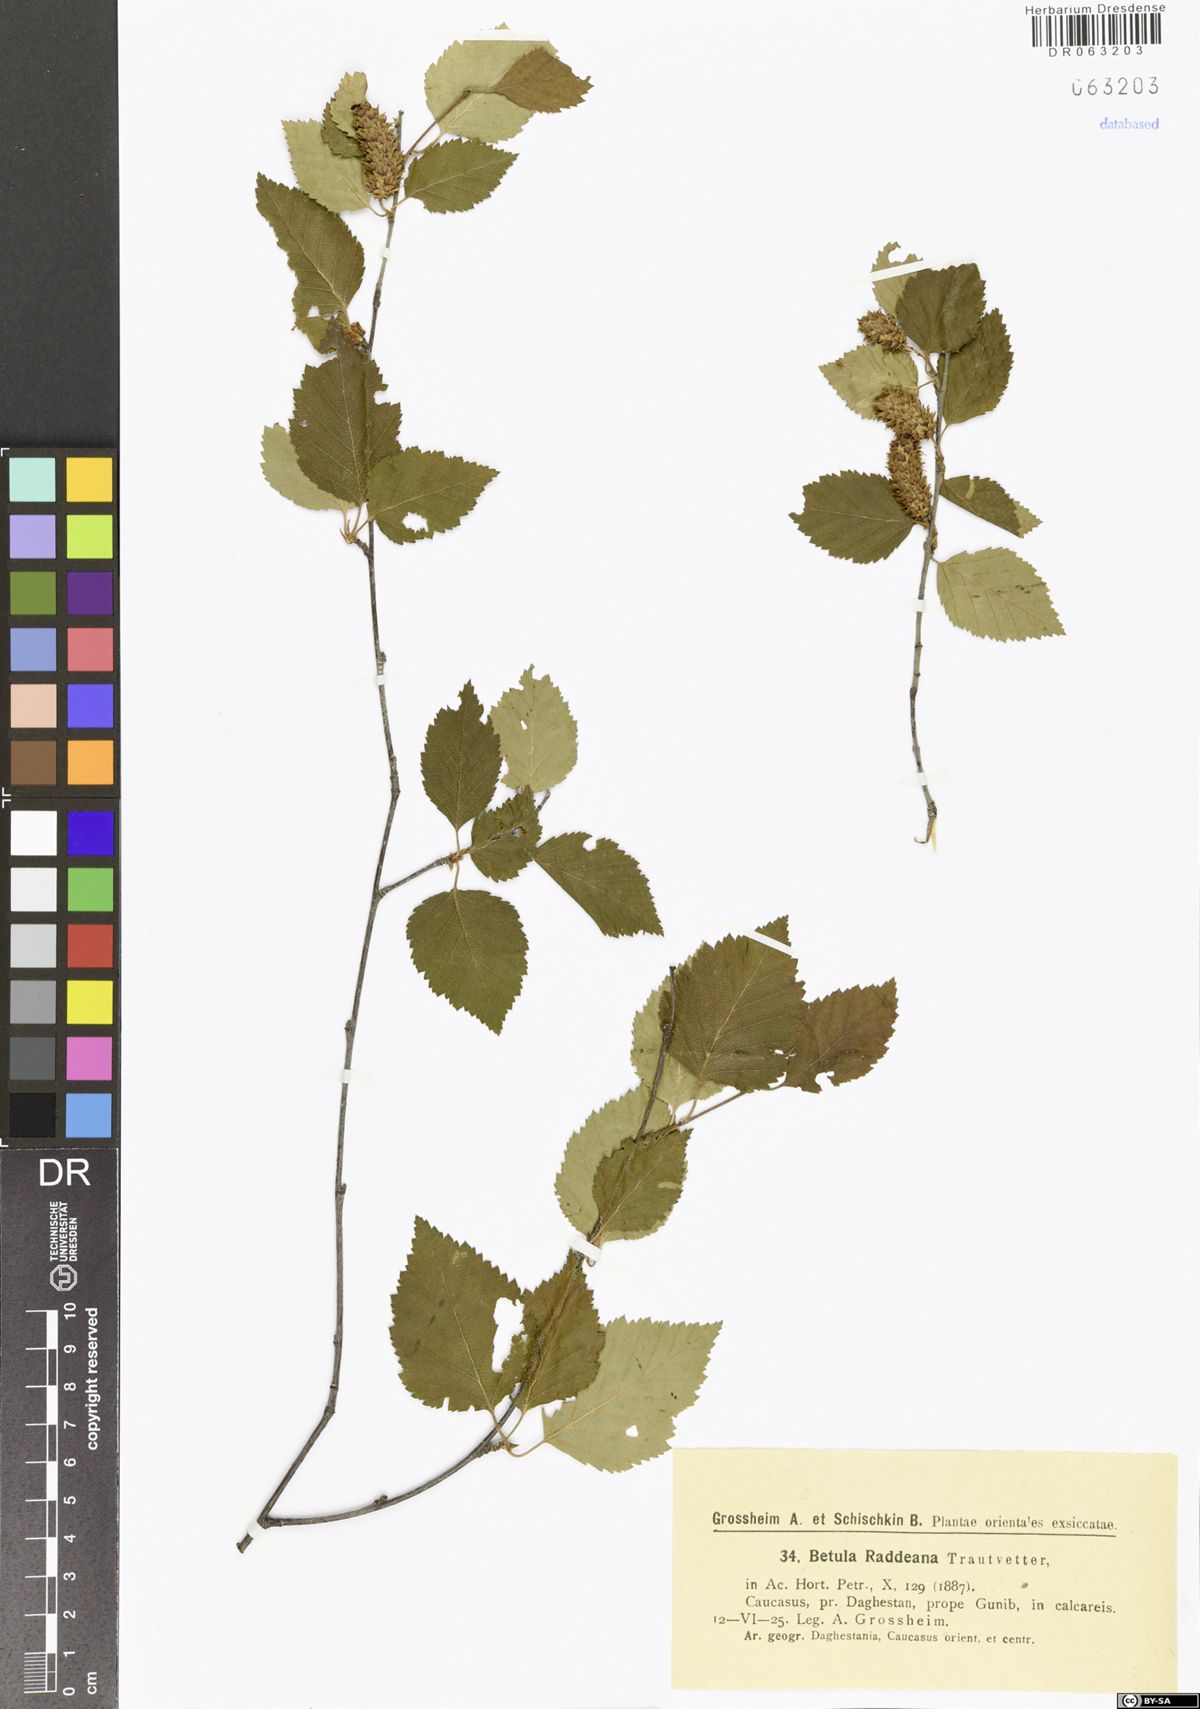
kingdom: Plantae
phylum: Tracheophyta
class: Magnoliopsida
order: Fagales
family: Betulaceae
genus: Betula
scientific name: Betula raddeana
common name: Radde's birch
